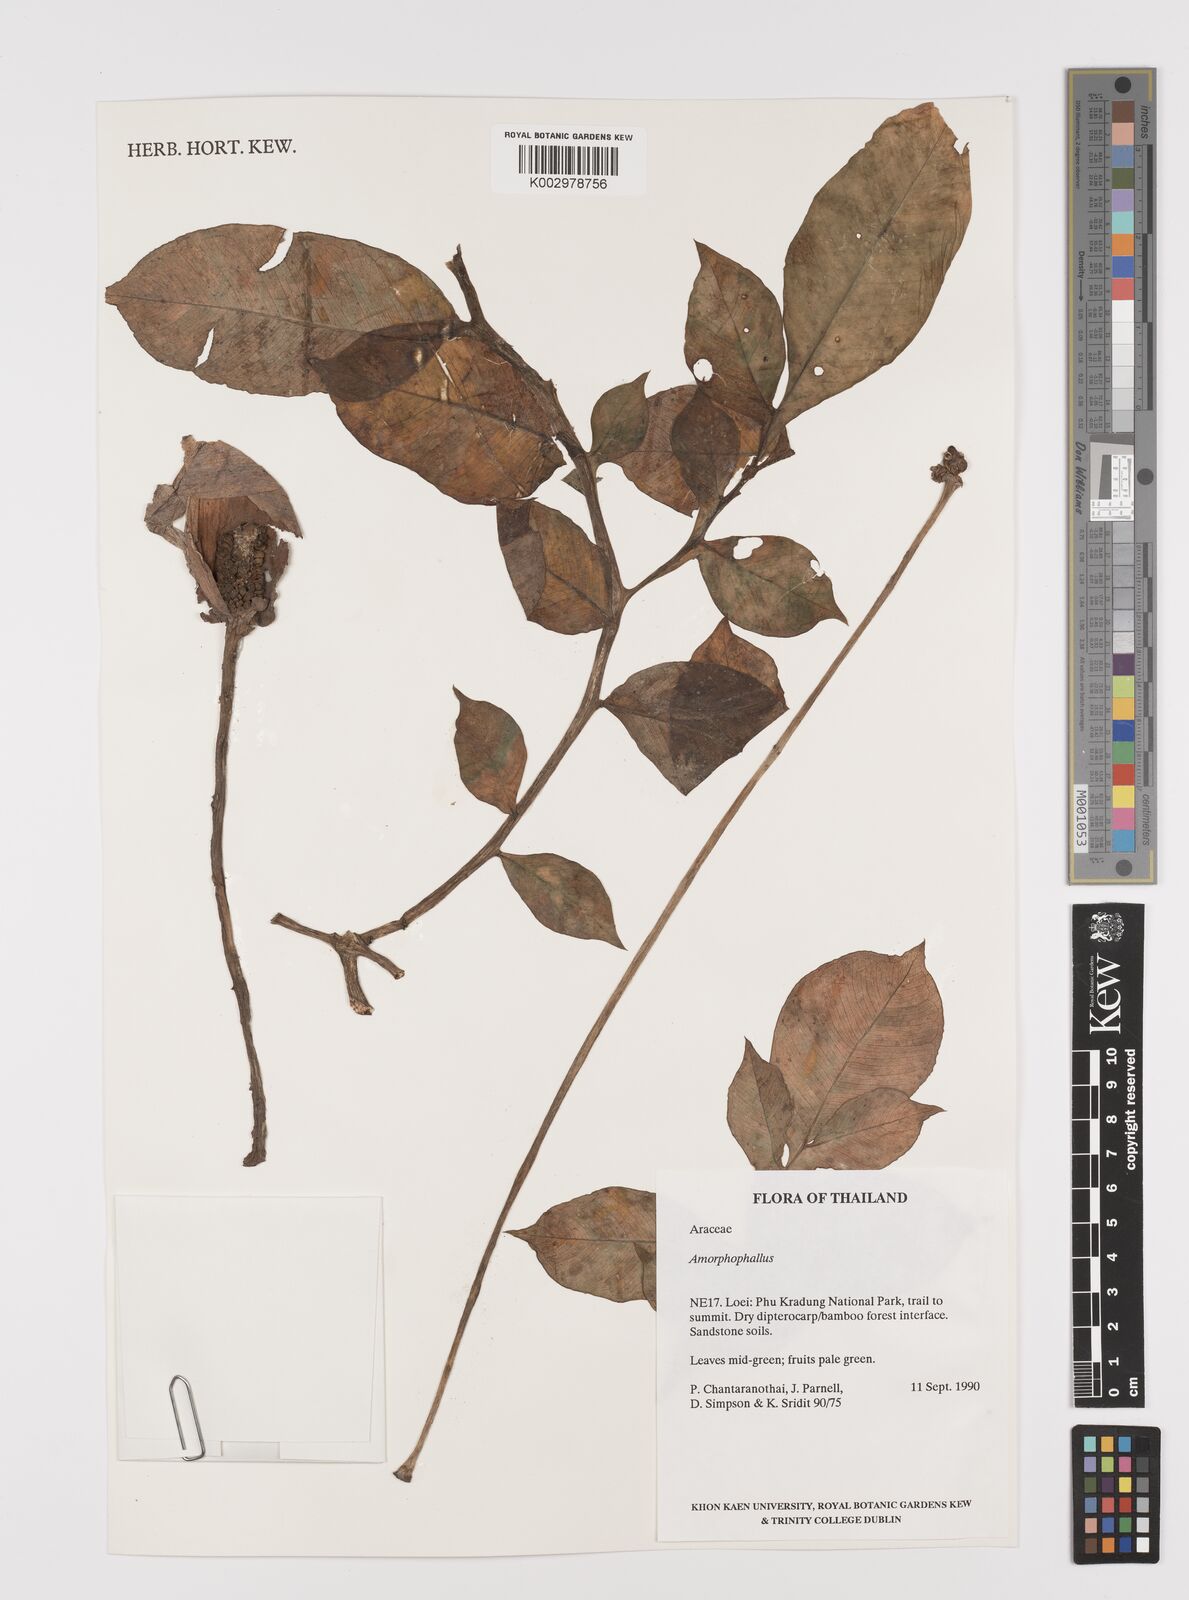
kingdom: Plantae
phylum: Tracheophyta
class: Liliopsida
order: Alismatales
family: Araceae
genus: Amorphophallus
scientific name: Amorphophallus
